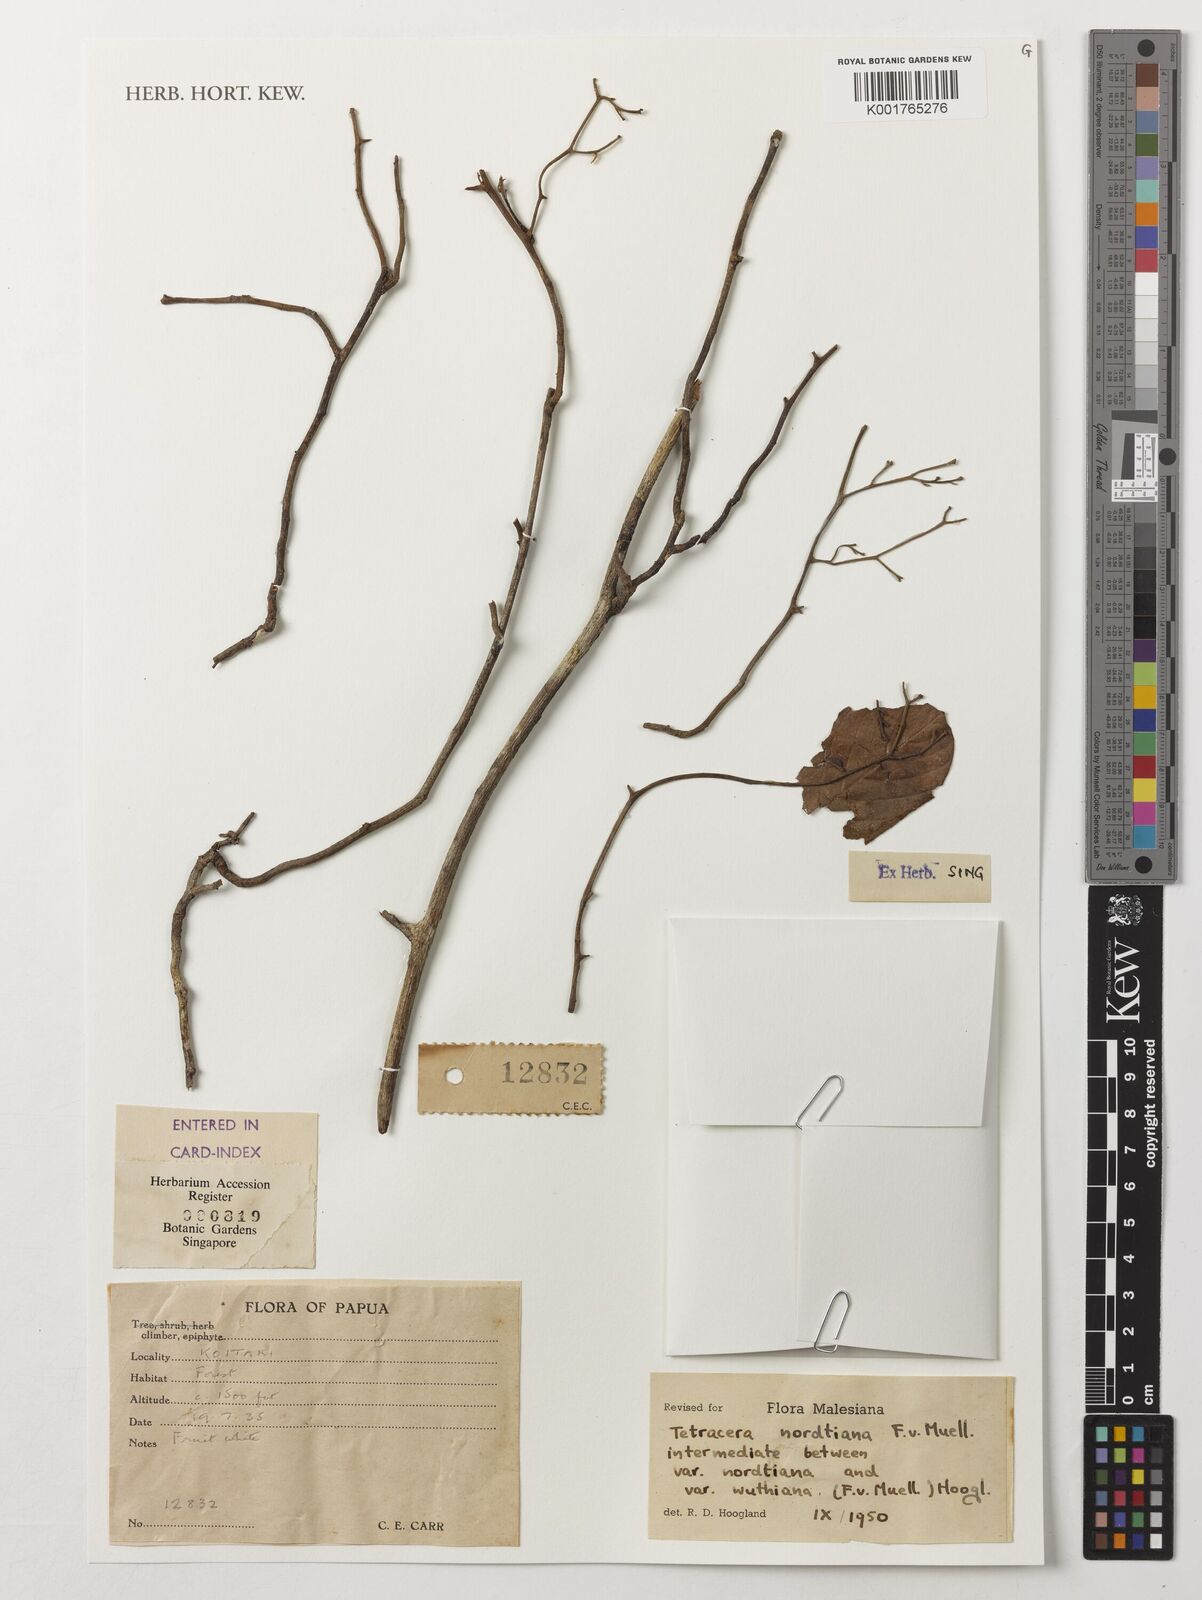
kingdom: Plantae
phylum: Tracheophyta
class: Magnoliopsida
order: Dilleniales
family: Dilleniaceae
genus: Tetracera
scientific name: Tetracera nordtiana
